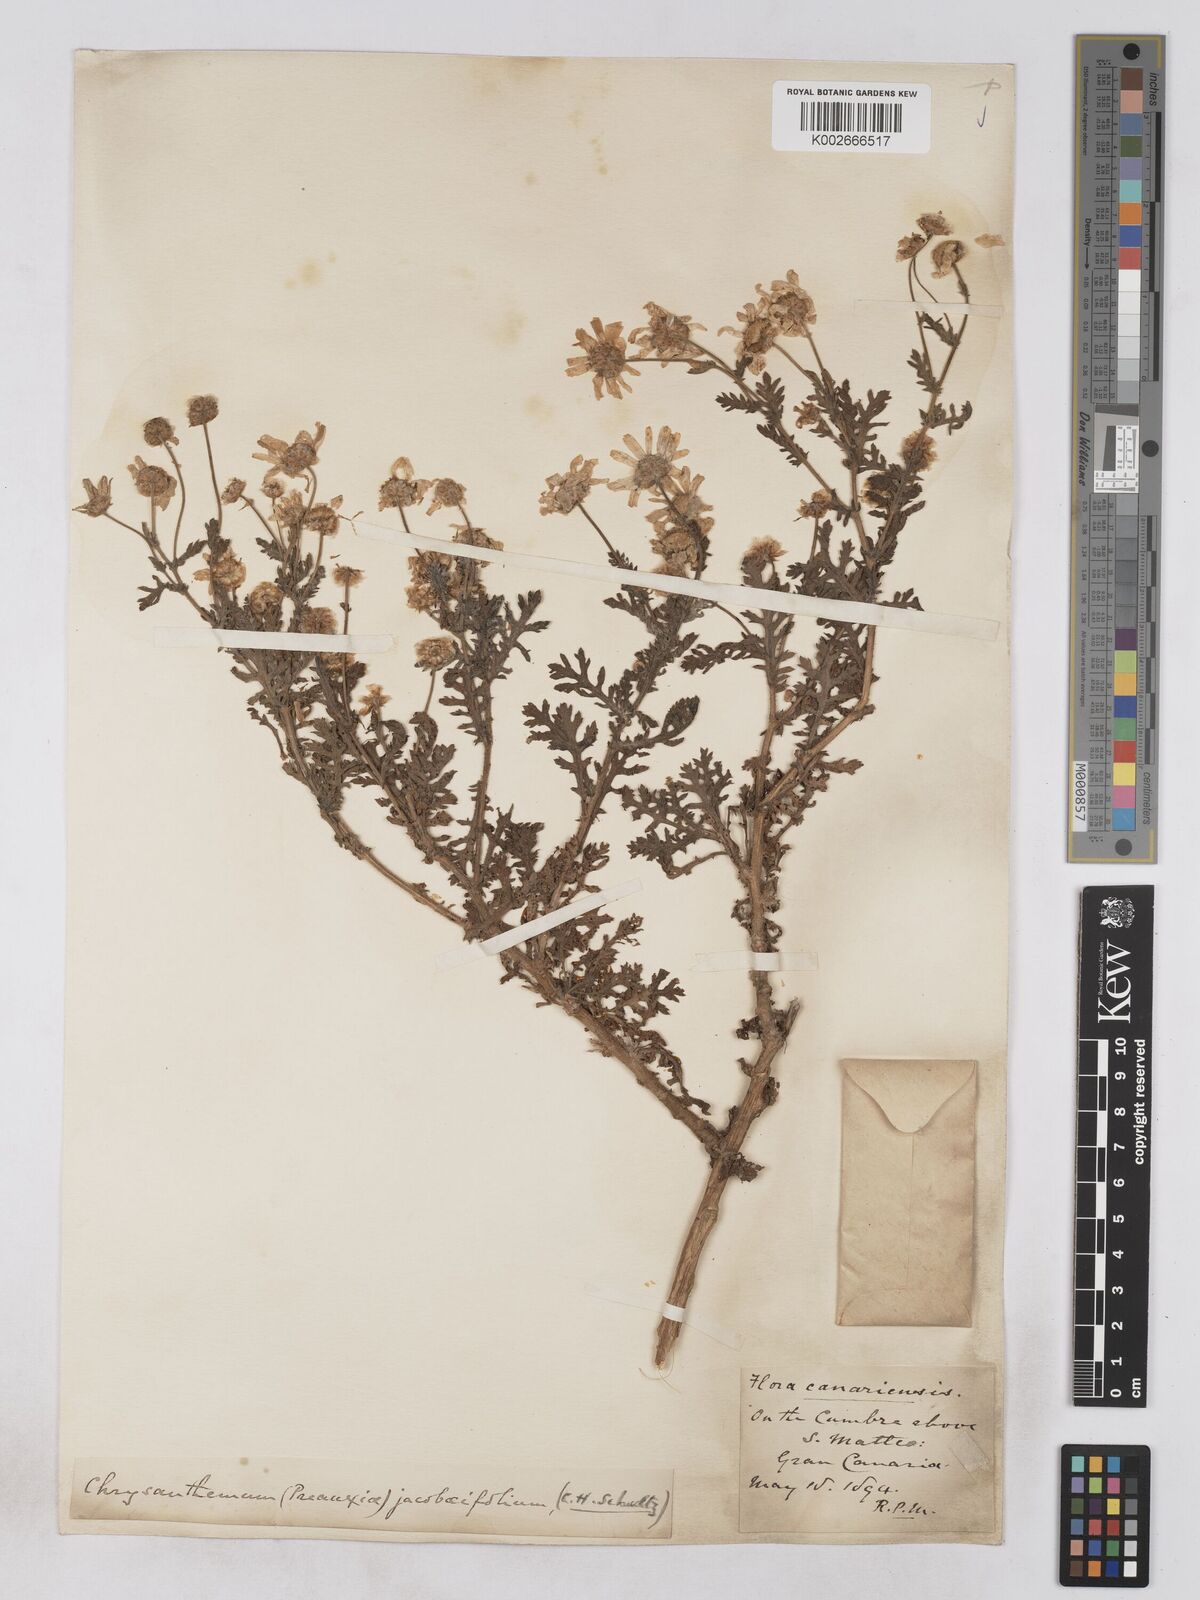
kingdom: Plantae
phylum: Tracheophyta
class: Magnoliopsida
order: Asterales
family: Asteraceae
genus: Argyranthemum
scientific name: Argyranthemum adauctum
